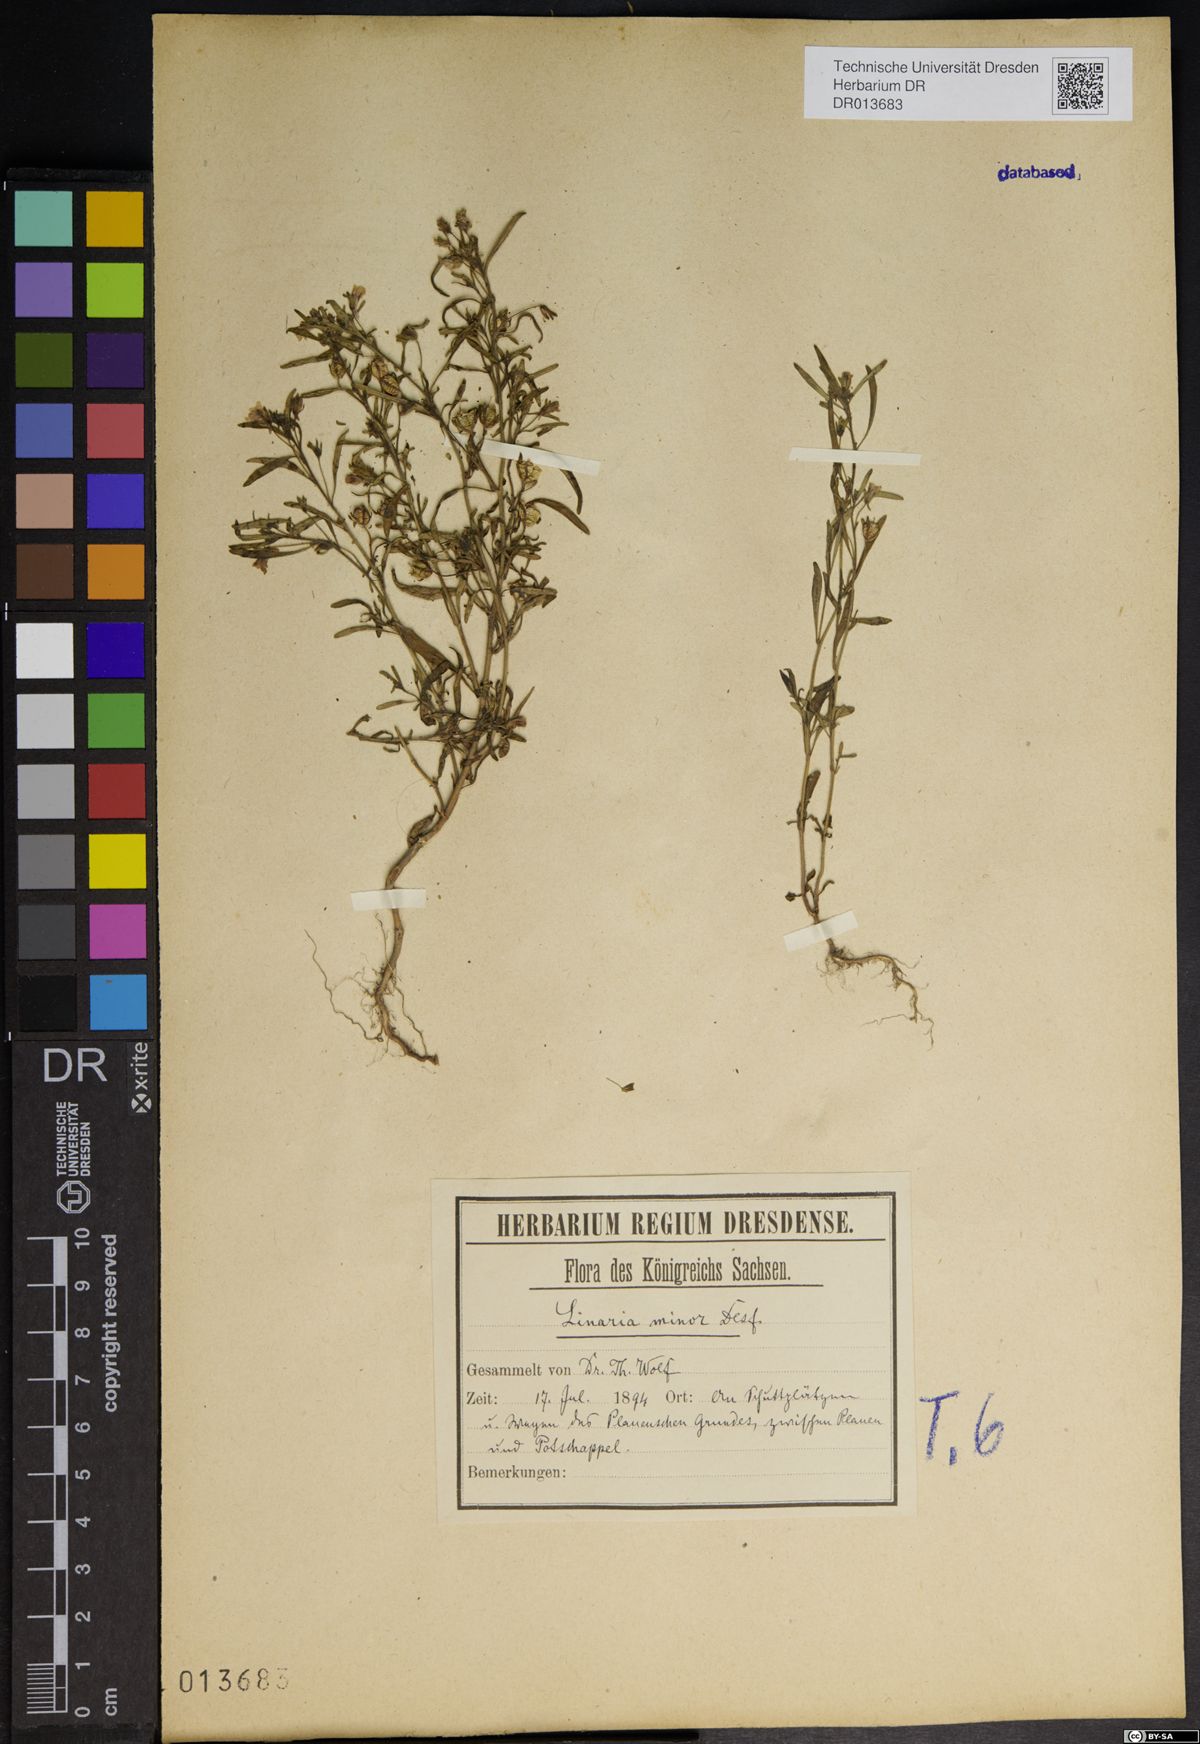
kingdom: Plantae
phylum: Tracheophyta
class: Magnoliopsida
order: Lamiales
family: Plantaginaceae
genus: Chaenorhinum
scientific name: Chaenorhinum minus
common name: Dwarf snapdragon
